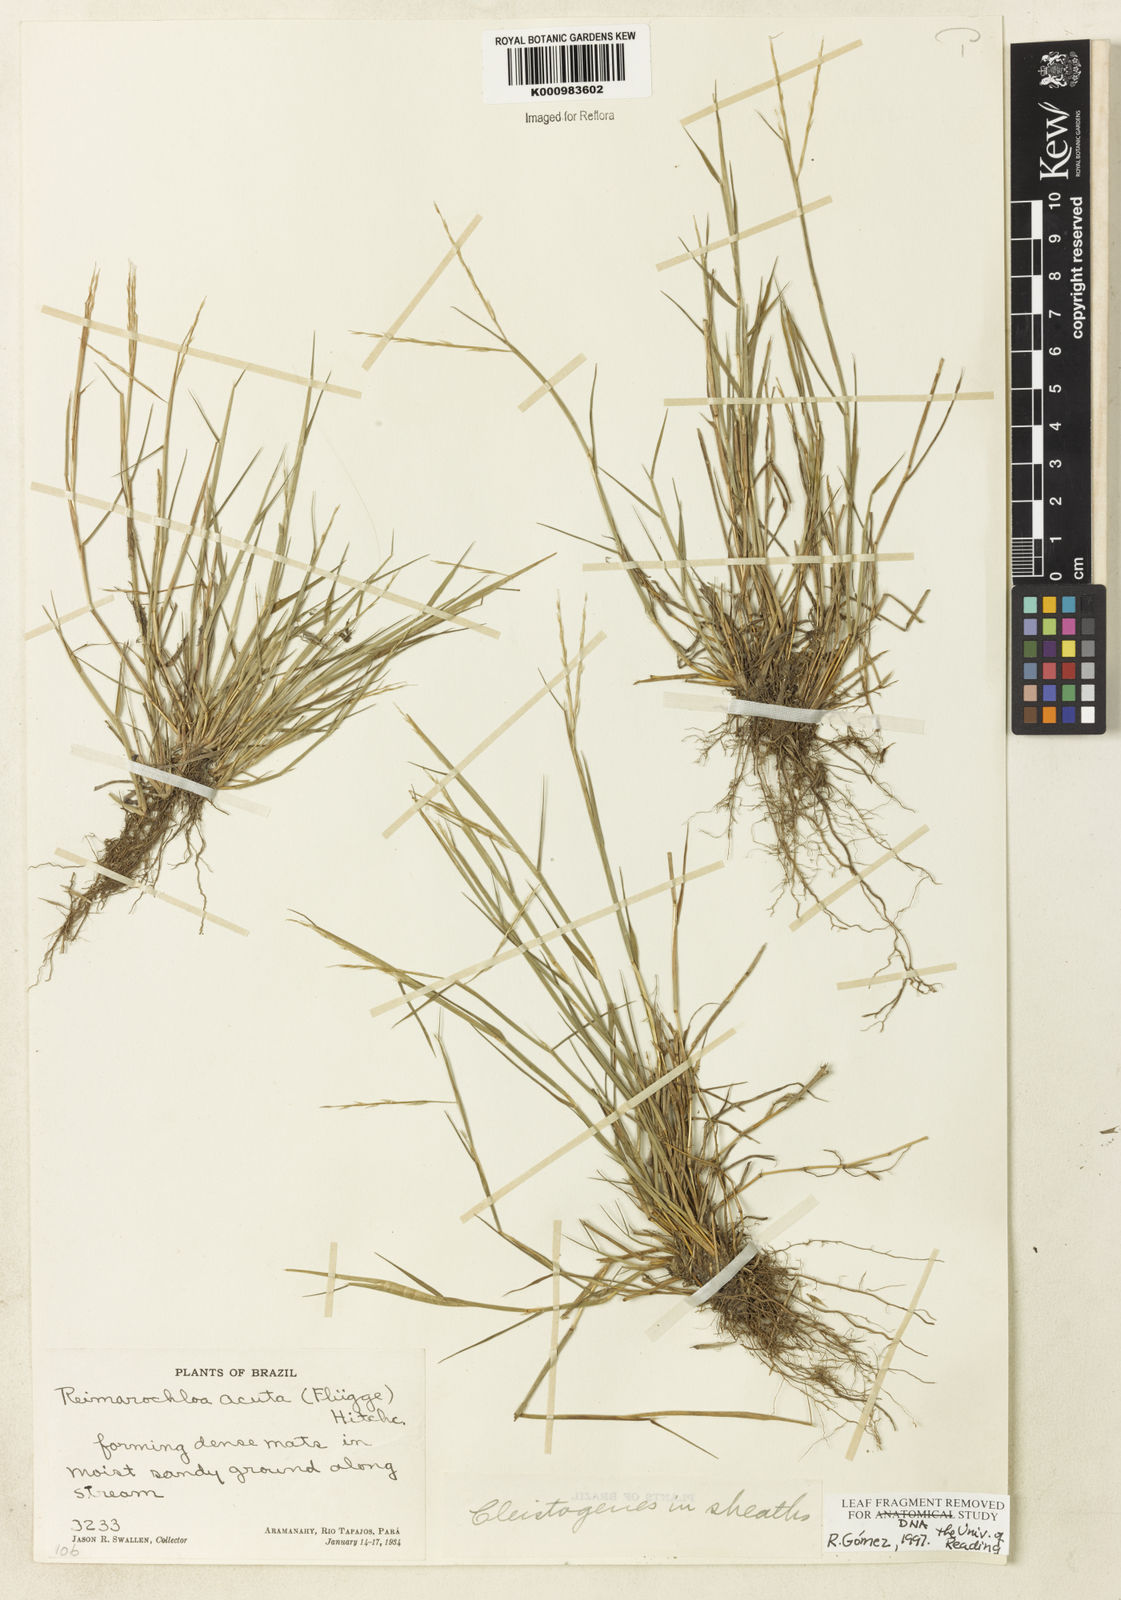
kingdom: Plantae
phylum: Tracheophyta
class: Liliopsida
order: Poales
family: Poaceae
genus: Paspalum
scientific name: Paspalum
